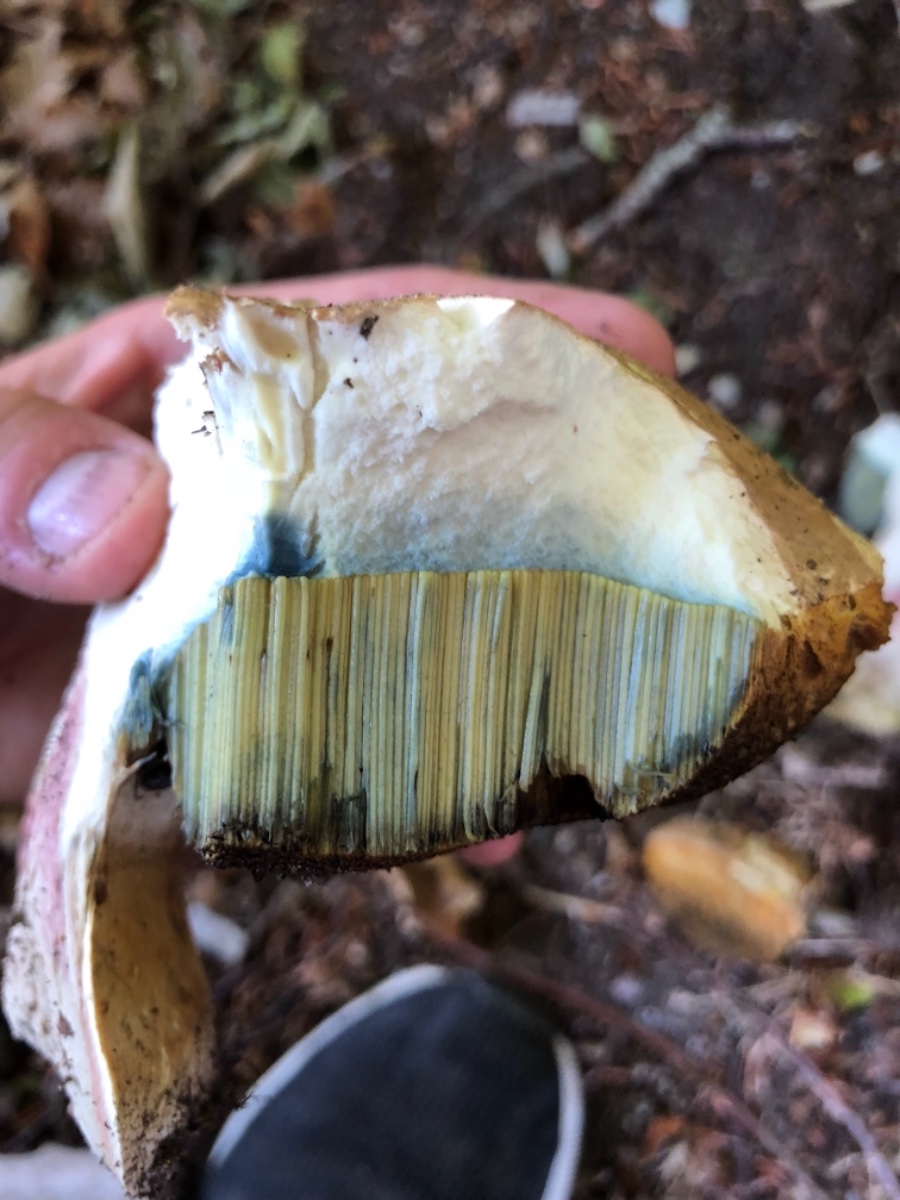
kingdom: Fungi
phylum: Basidiomycota
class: Agaricomycetes
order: Boletales
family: Boletaceae
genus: Caloboletus
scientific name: Caloboletus radicans
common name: rod-rørhat
